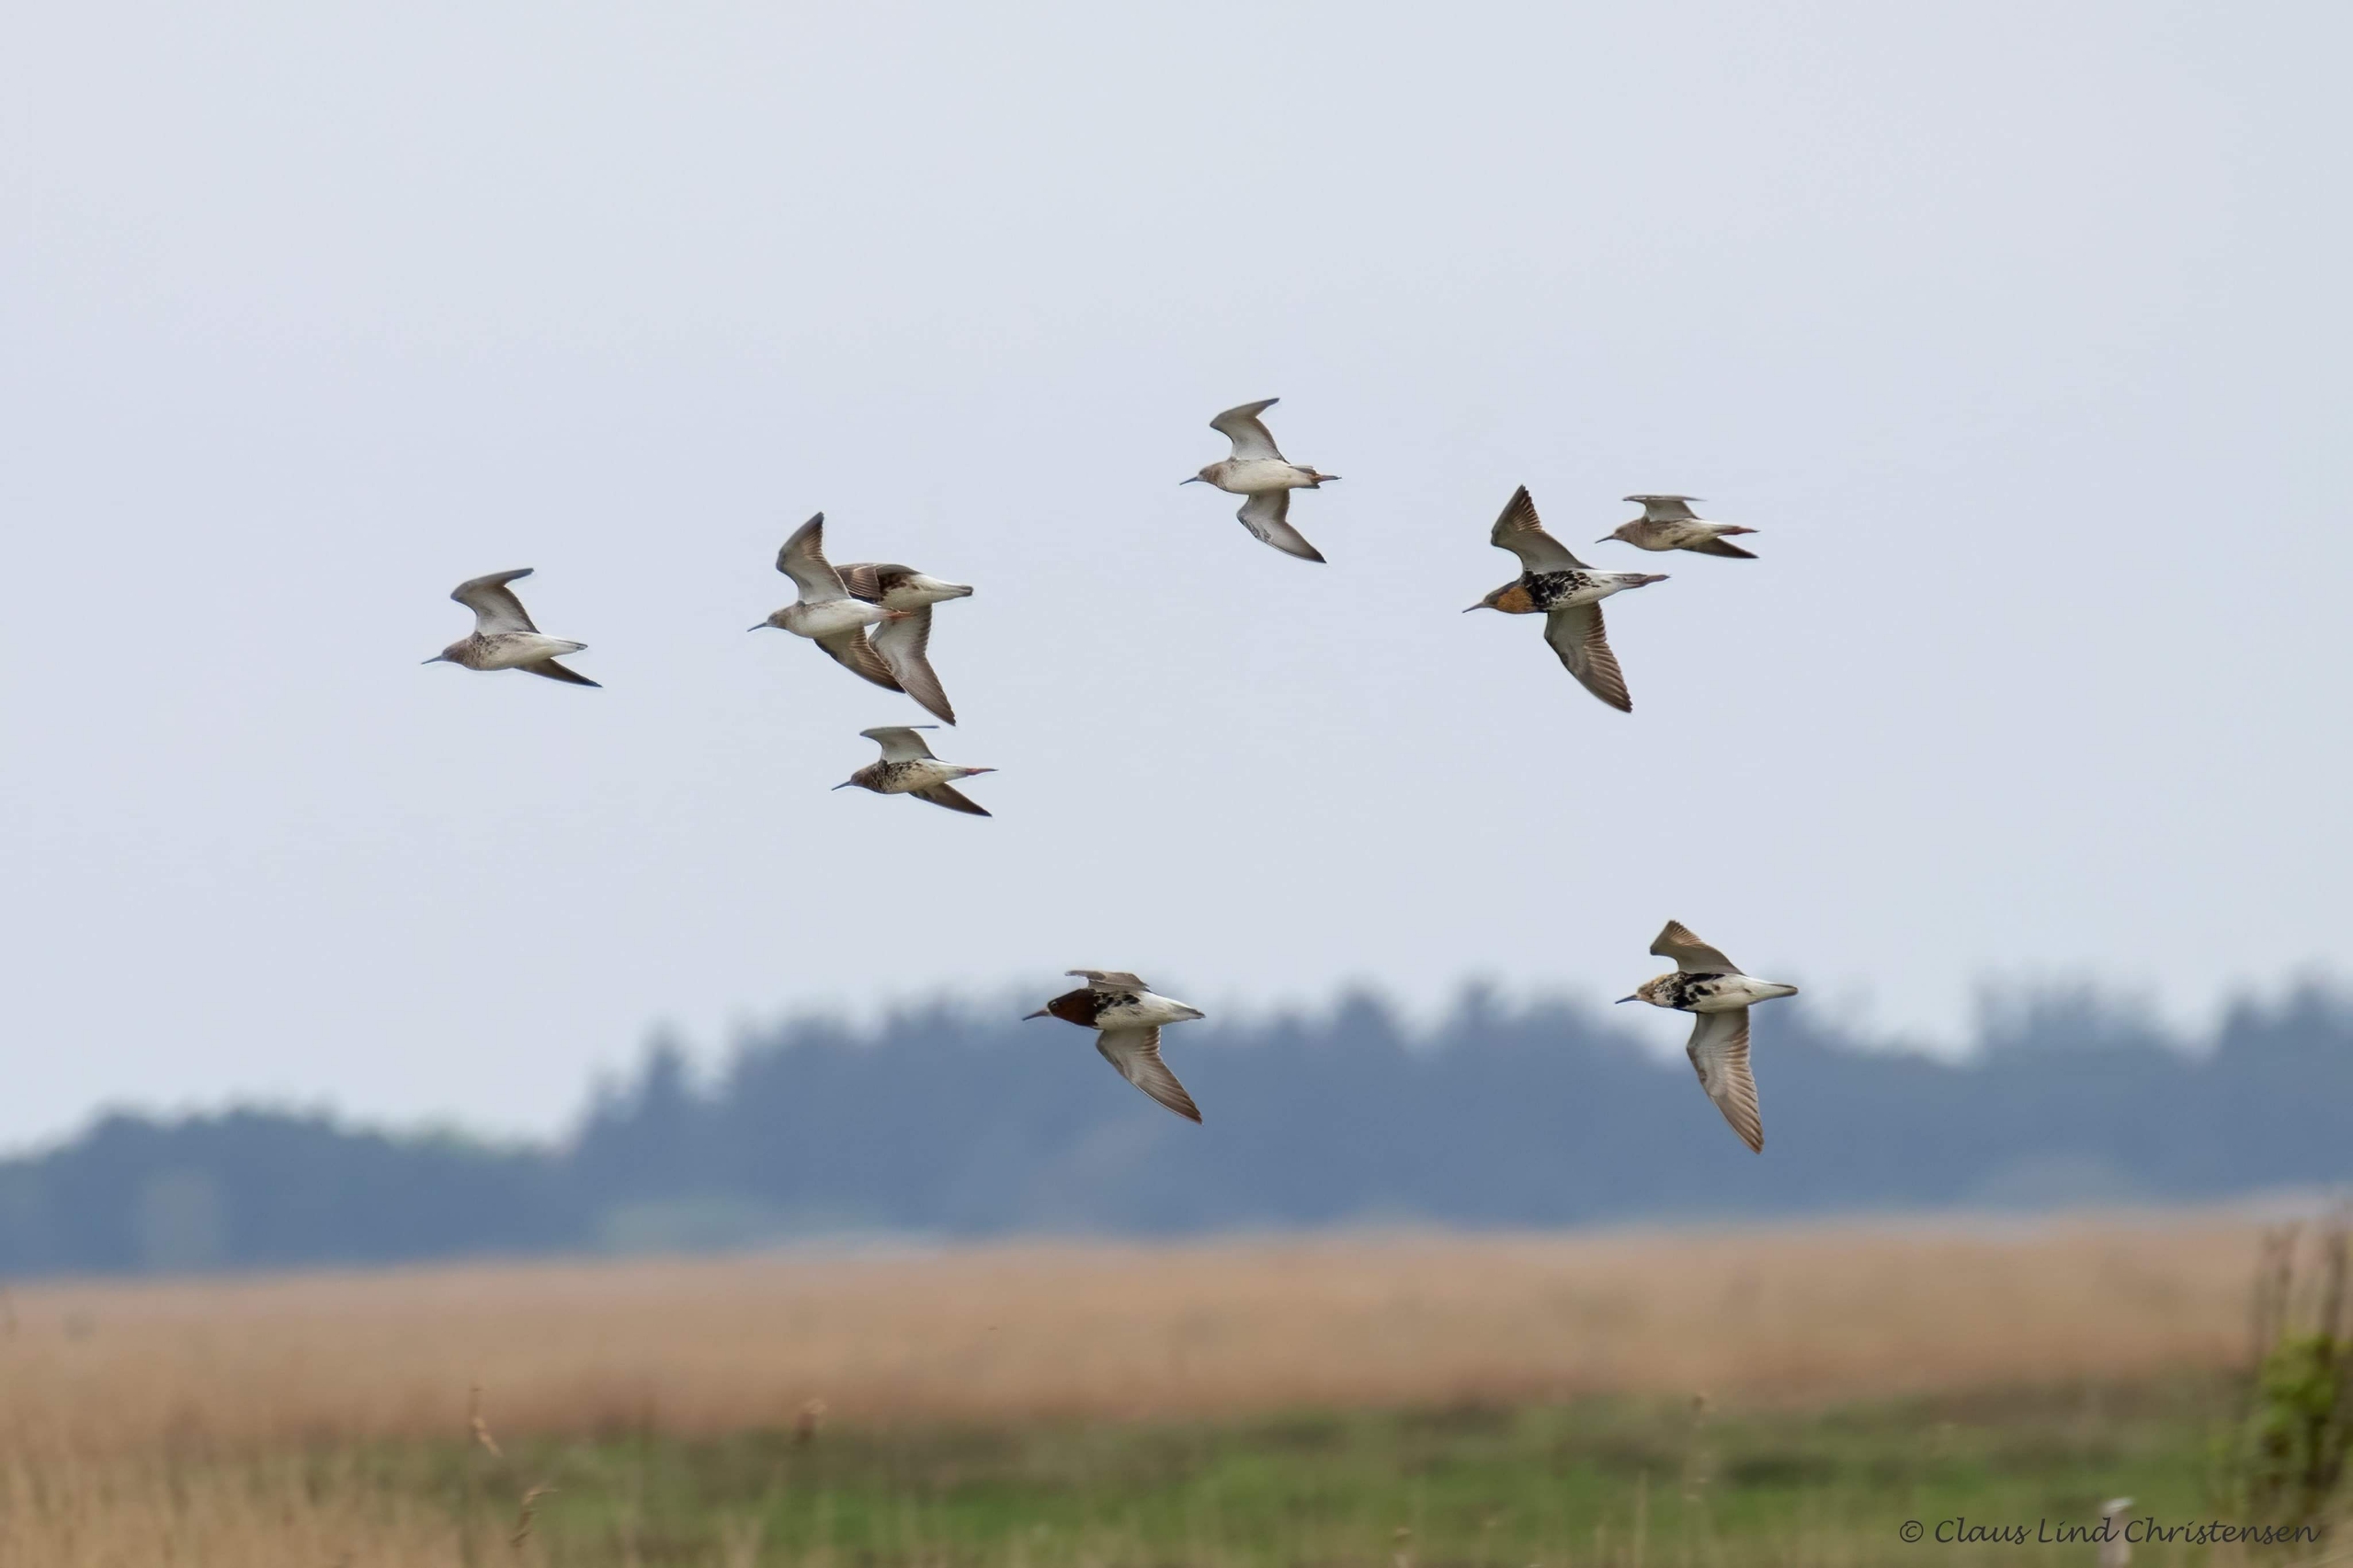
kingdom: Animalia
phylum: Chordata
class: Aves
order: Charadriiformes
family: Scolopacidae
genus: Calidris
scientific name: Calidris pugnax
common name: Brushane
